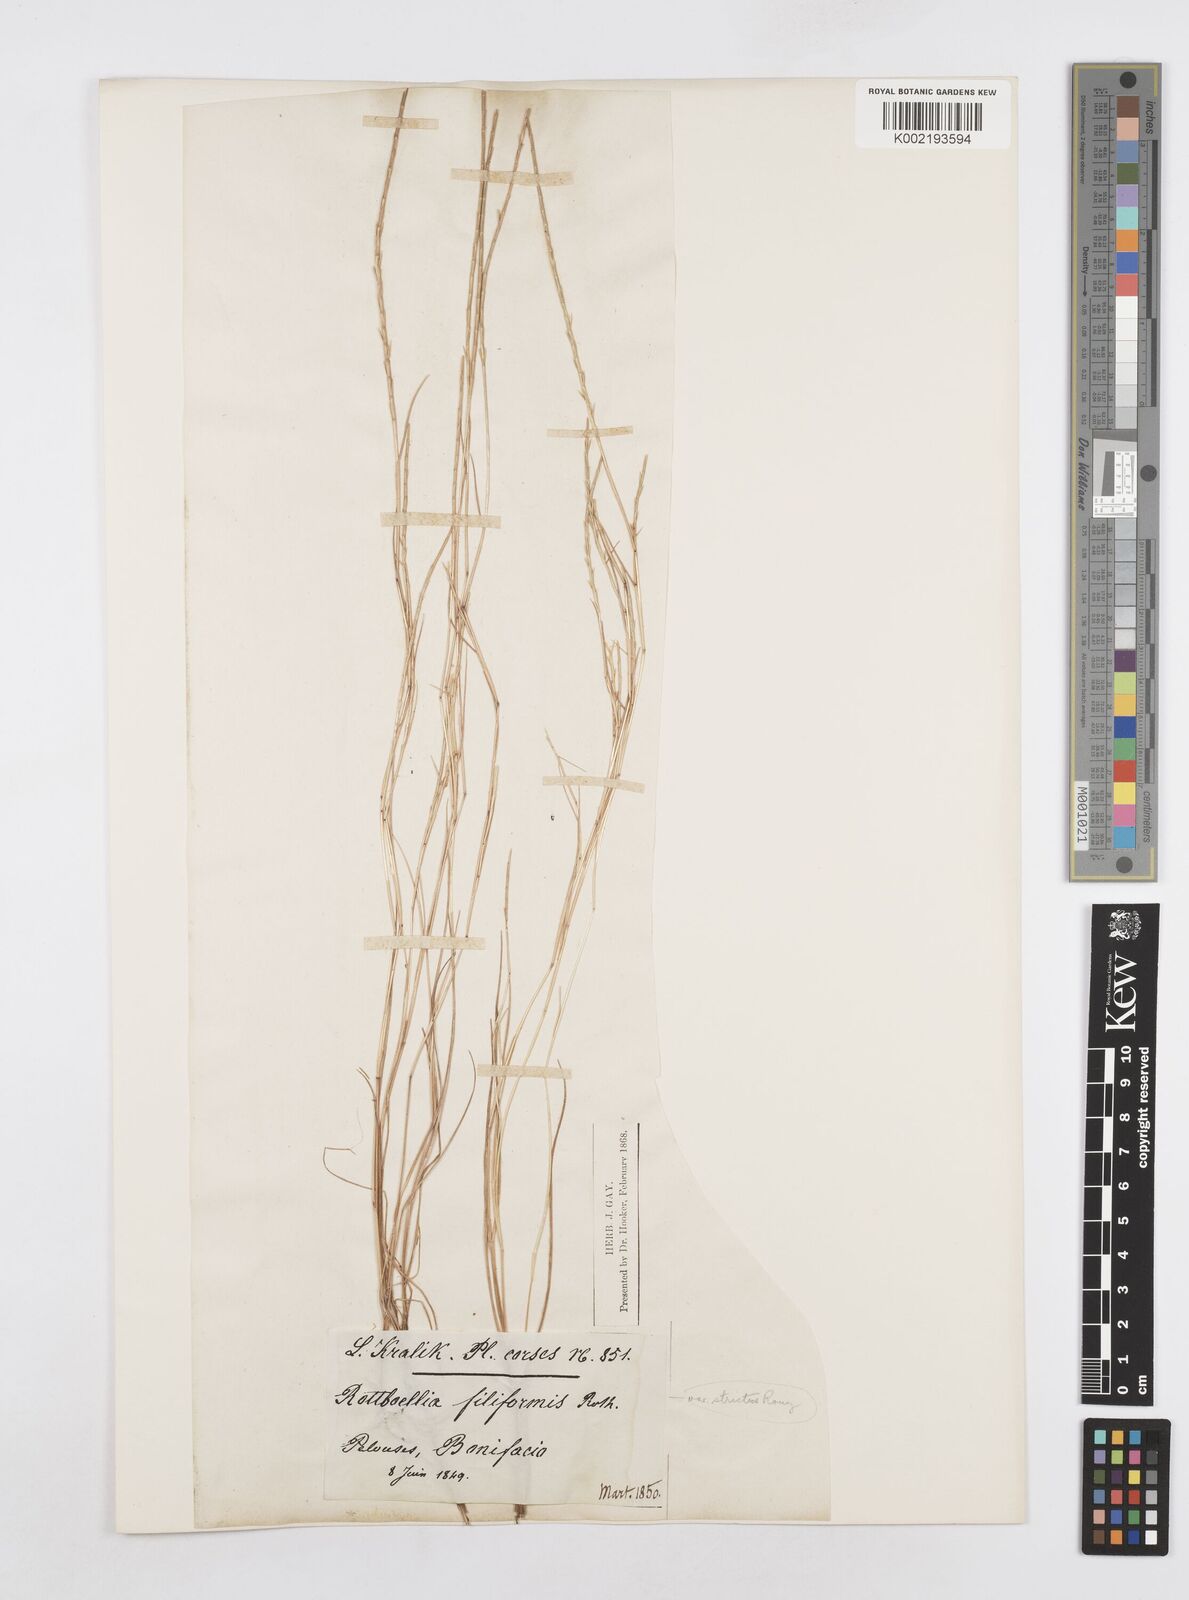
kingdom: Plantae
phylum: Tracheophyta
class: Liliopsida
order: Poales
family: Poaceae
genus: Parapholis
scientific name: Parapholis filiformis
